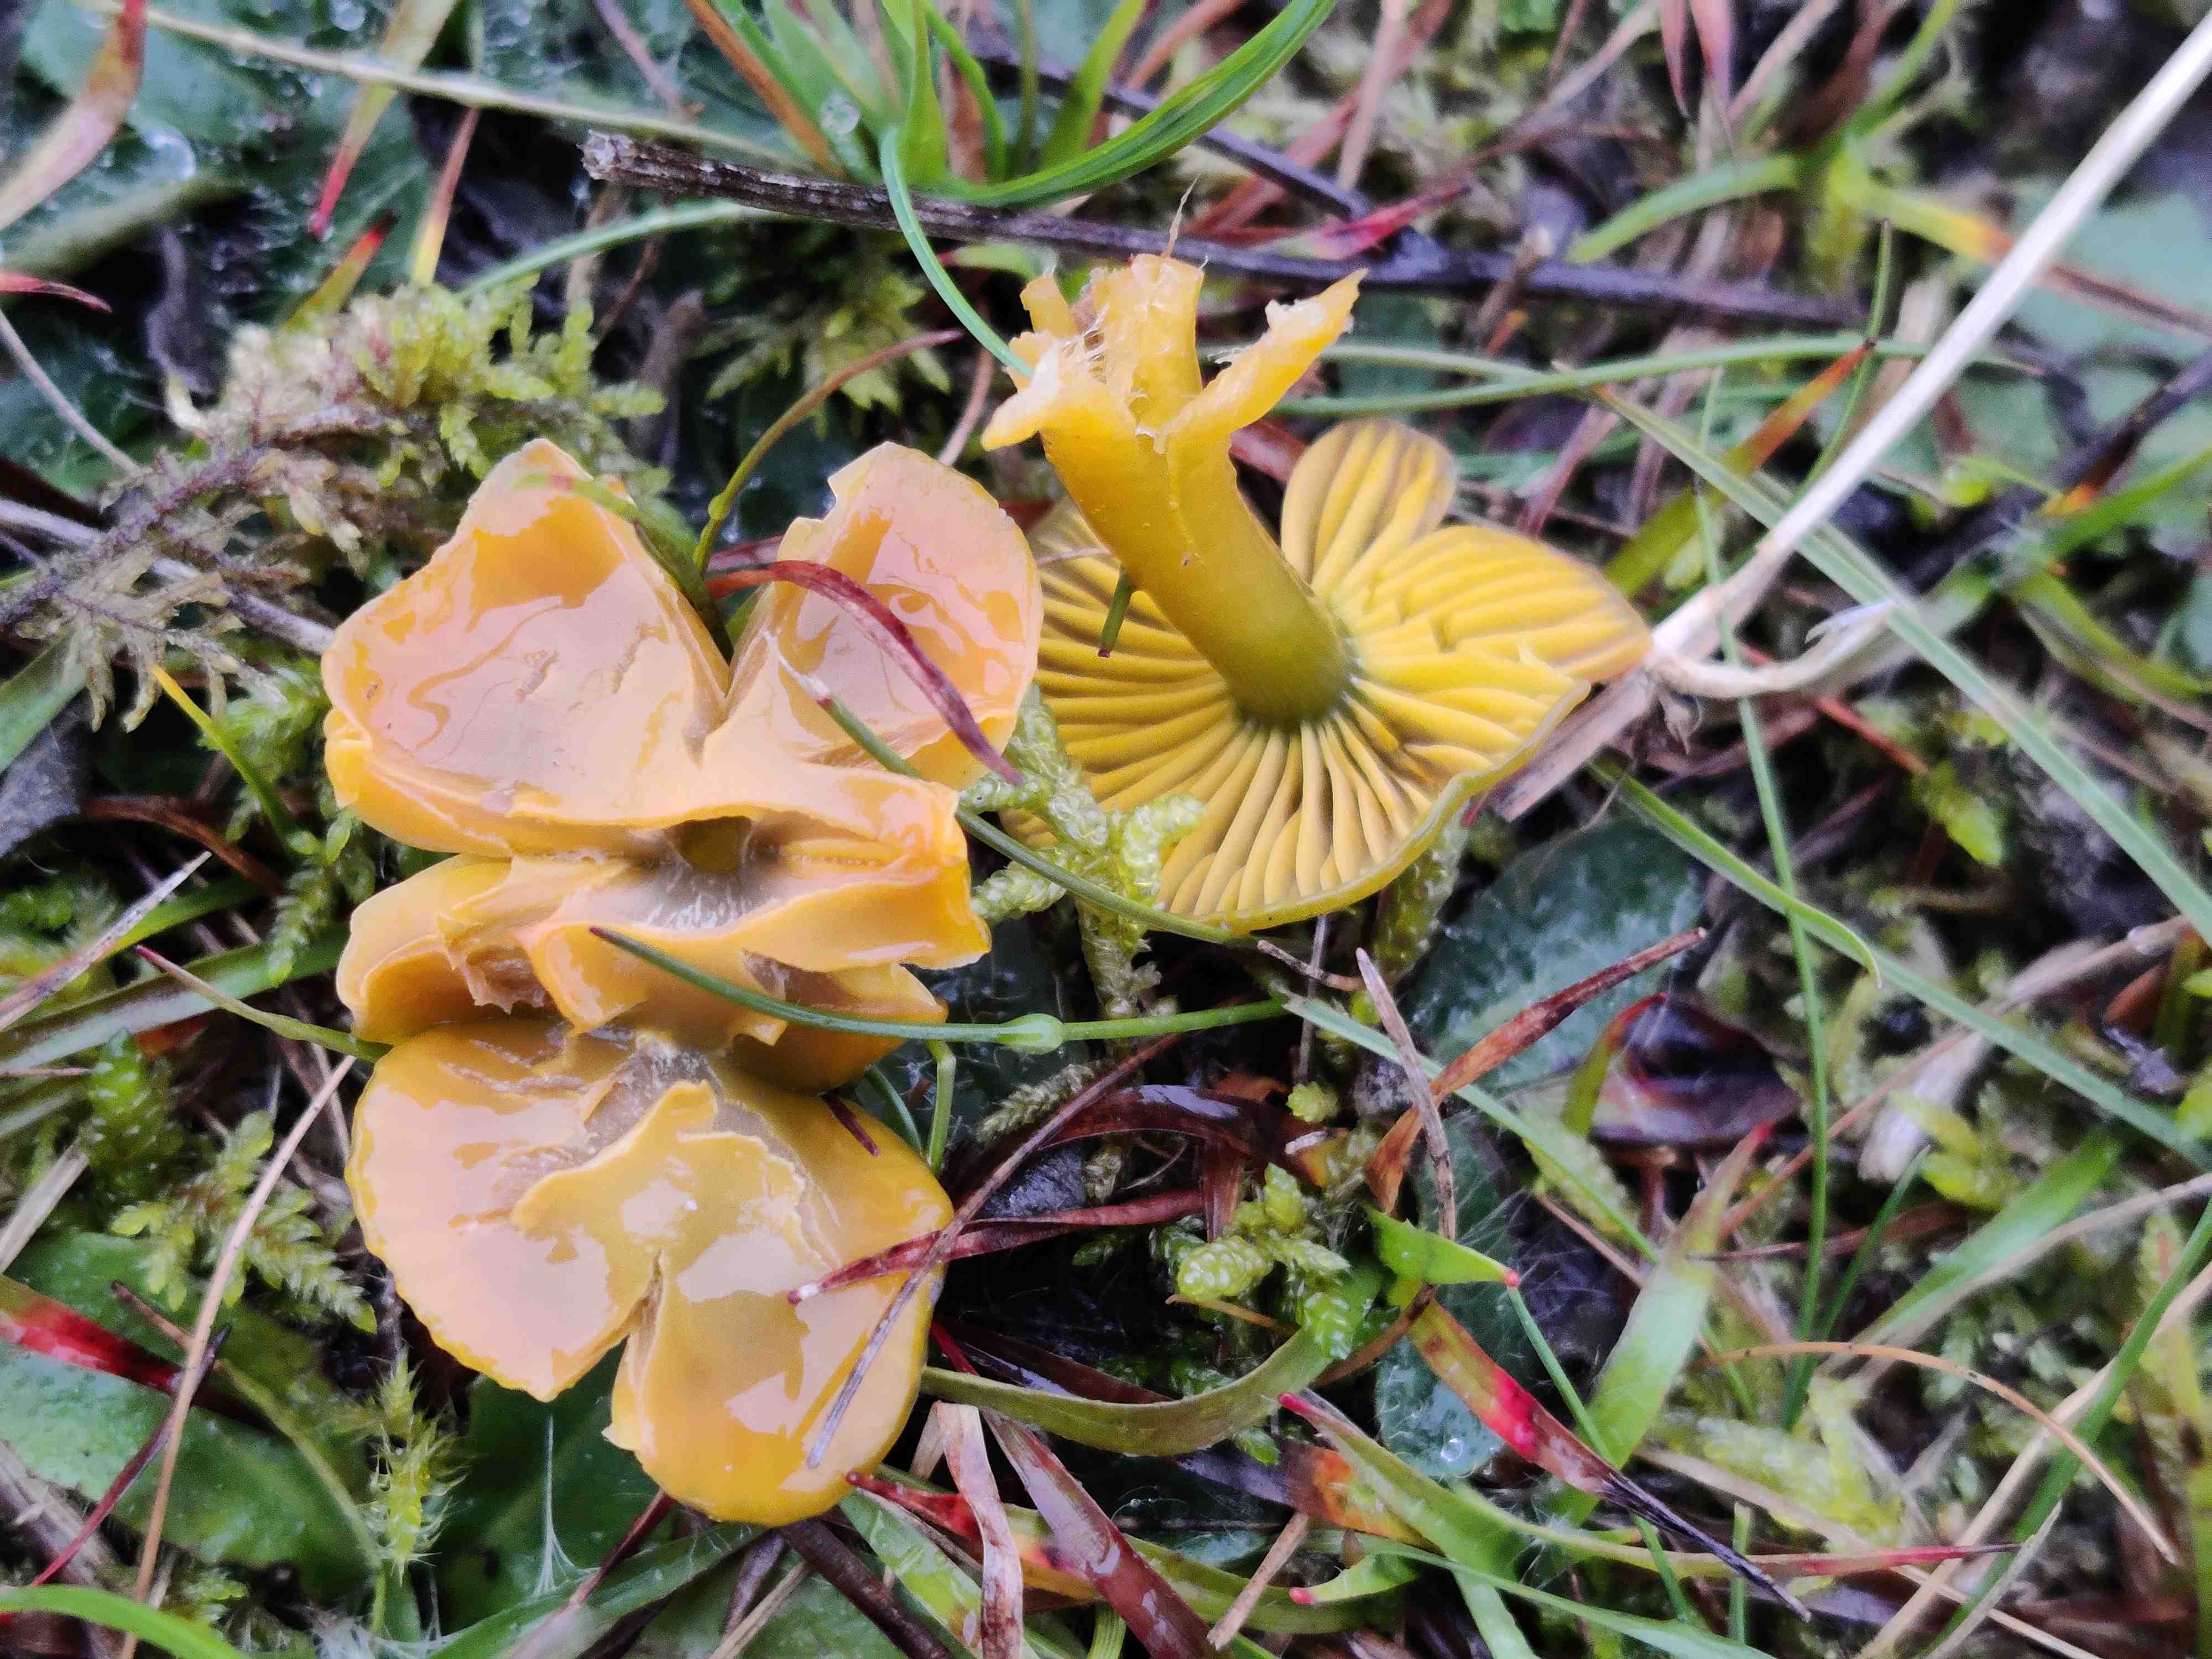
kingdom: Fungi
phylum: Basidiomycota
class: Agaricomycetes
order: Agaricales
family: Hygrophoraceae
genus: Gliophorus
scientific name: Gliophorus psittacinus
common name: papegøje-vokshat
